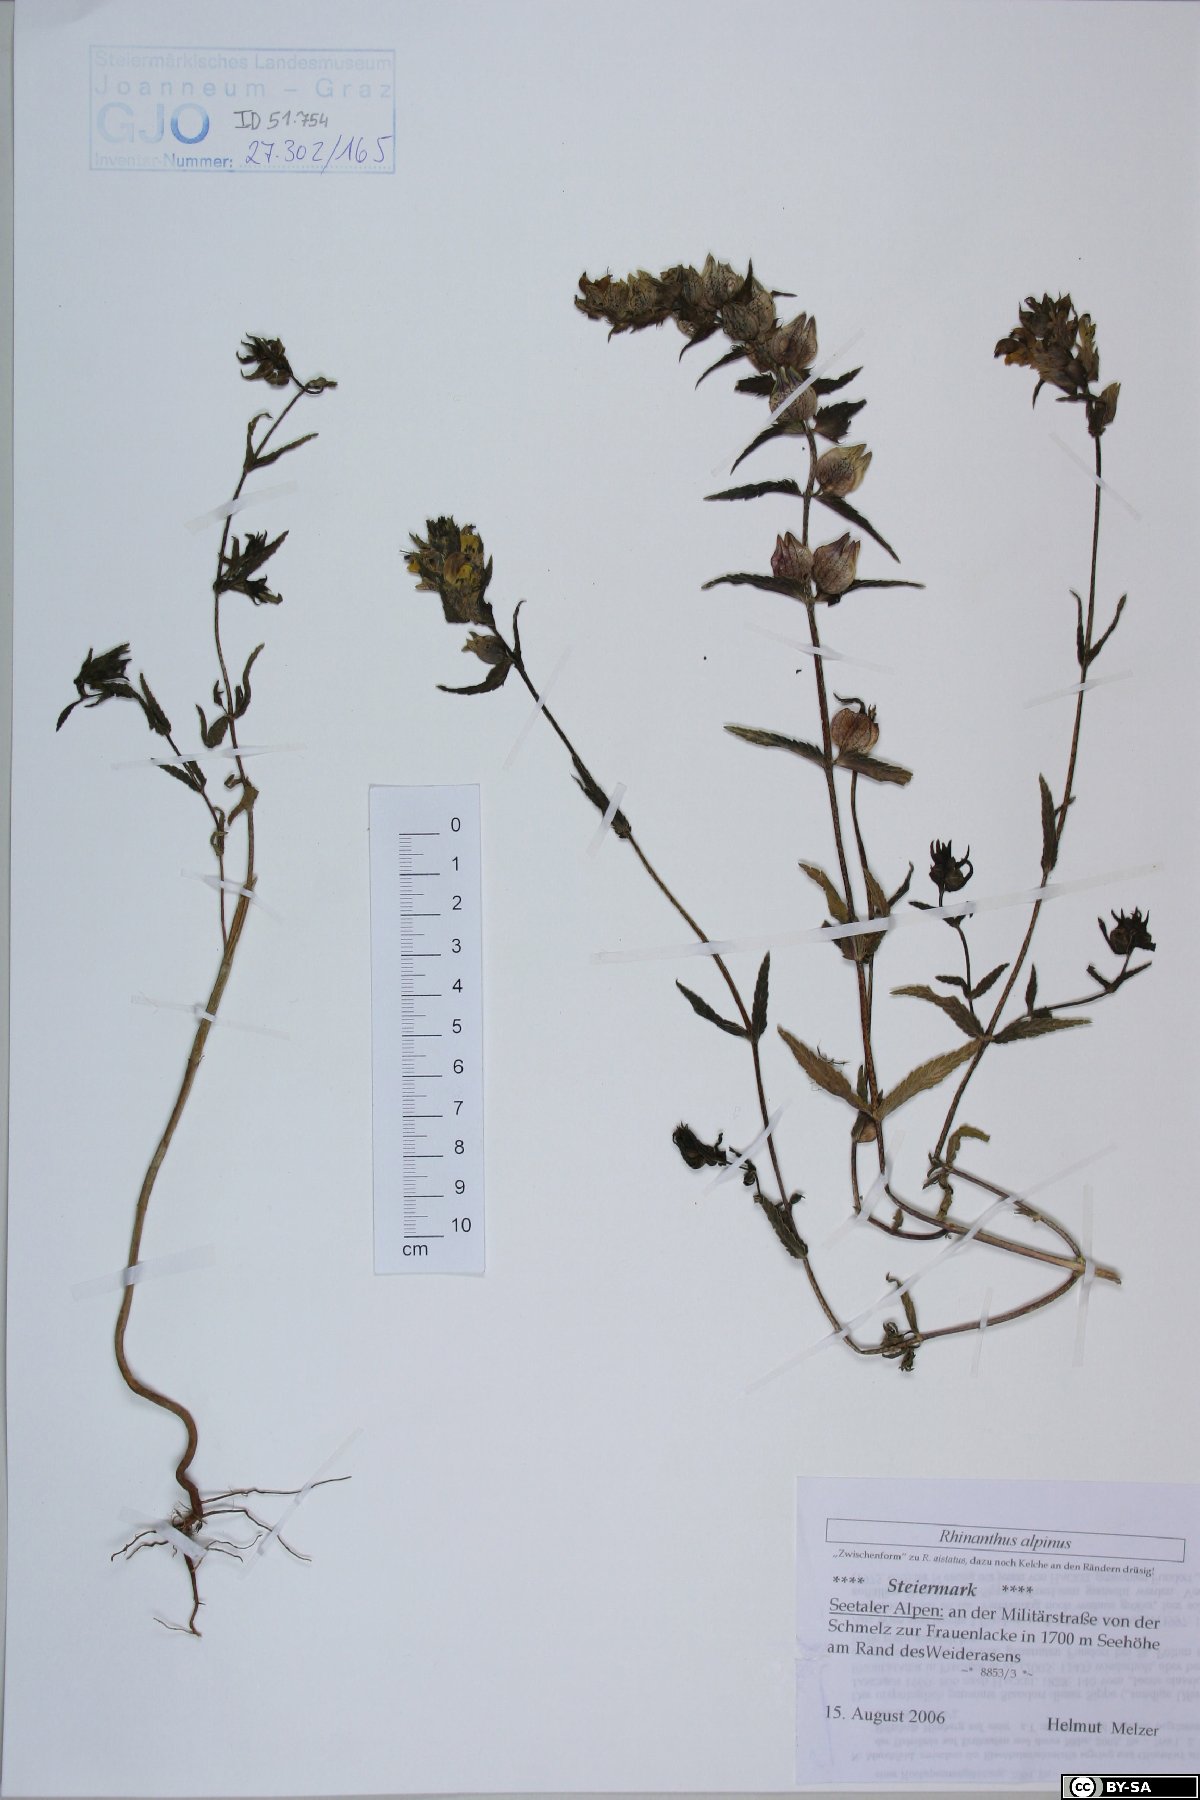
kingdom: Plantae
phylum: Tracheophyta
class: Magnoliopsida
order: Lamiales
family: Orobanchaceae
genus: Rhinanthus
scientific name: Rhinanthus riphaeus
